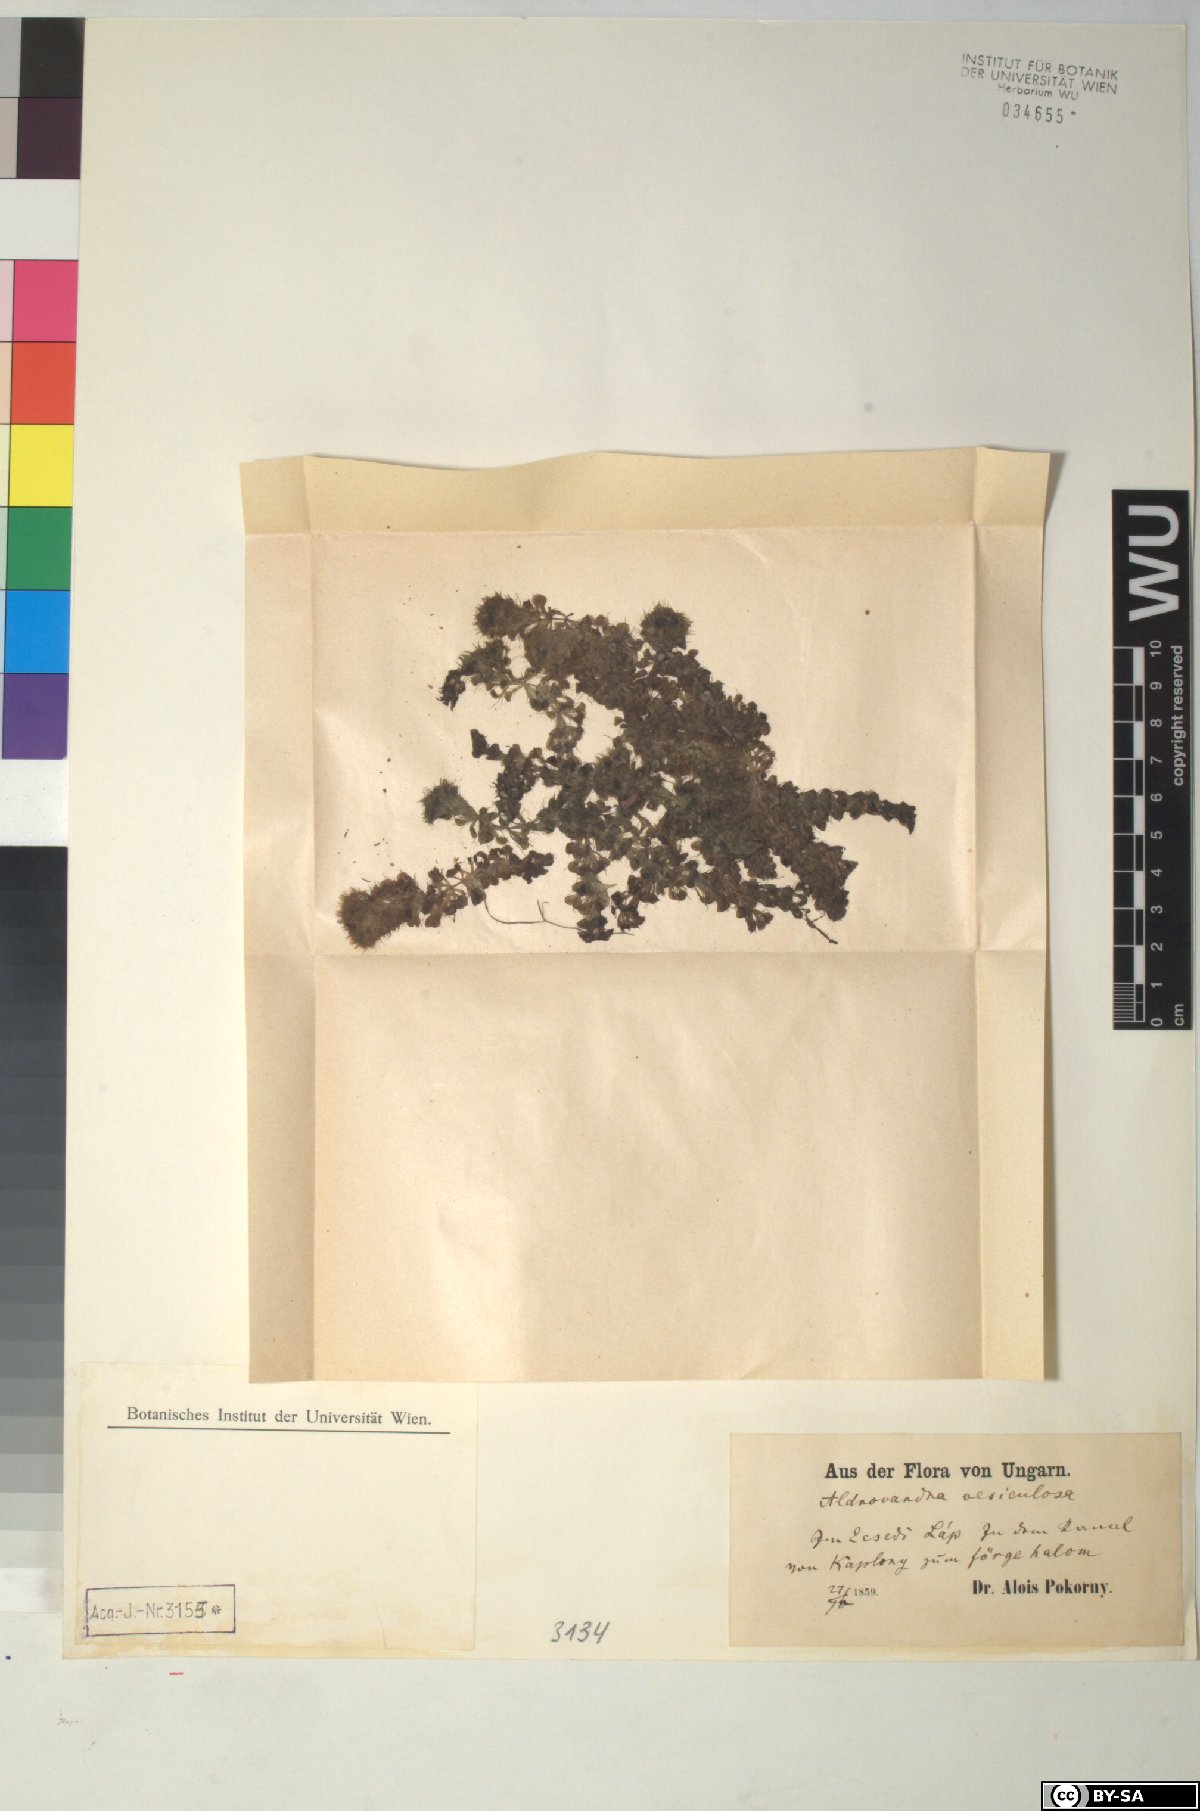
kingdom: Plantae
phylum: Tracheophyta
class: Magnoliopsida
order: Caryophyllales
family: Droseraceae
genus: Aldrovanda
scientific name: Aldrovanda vesiculosa
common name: Waterwheel plant
